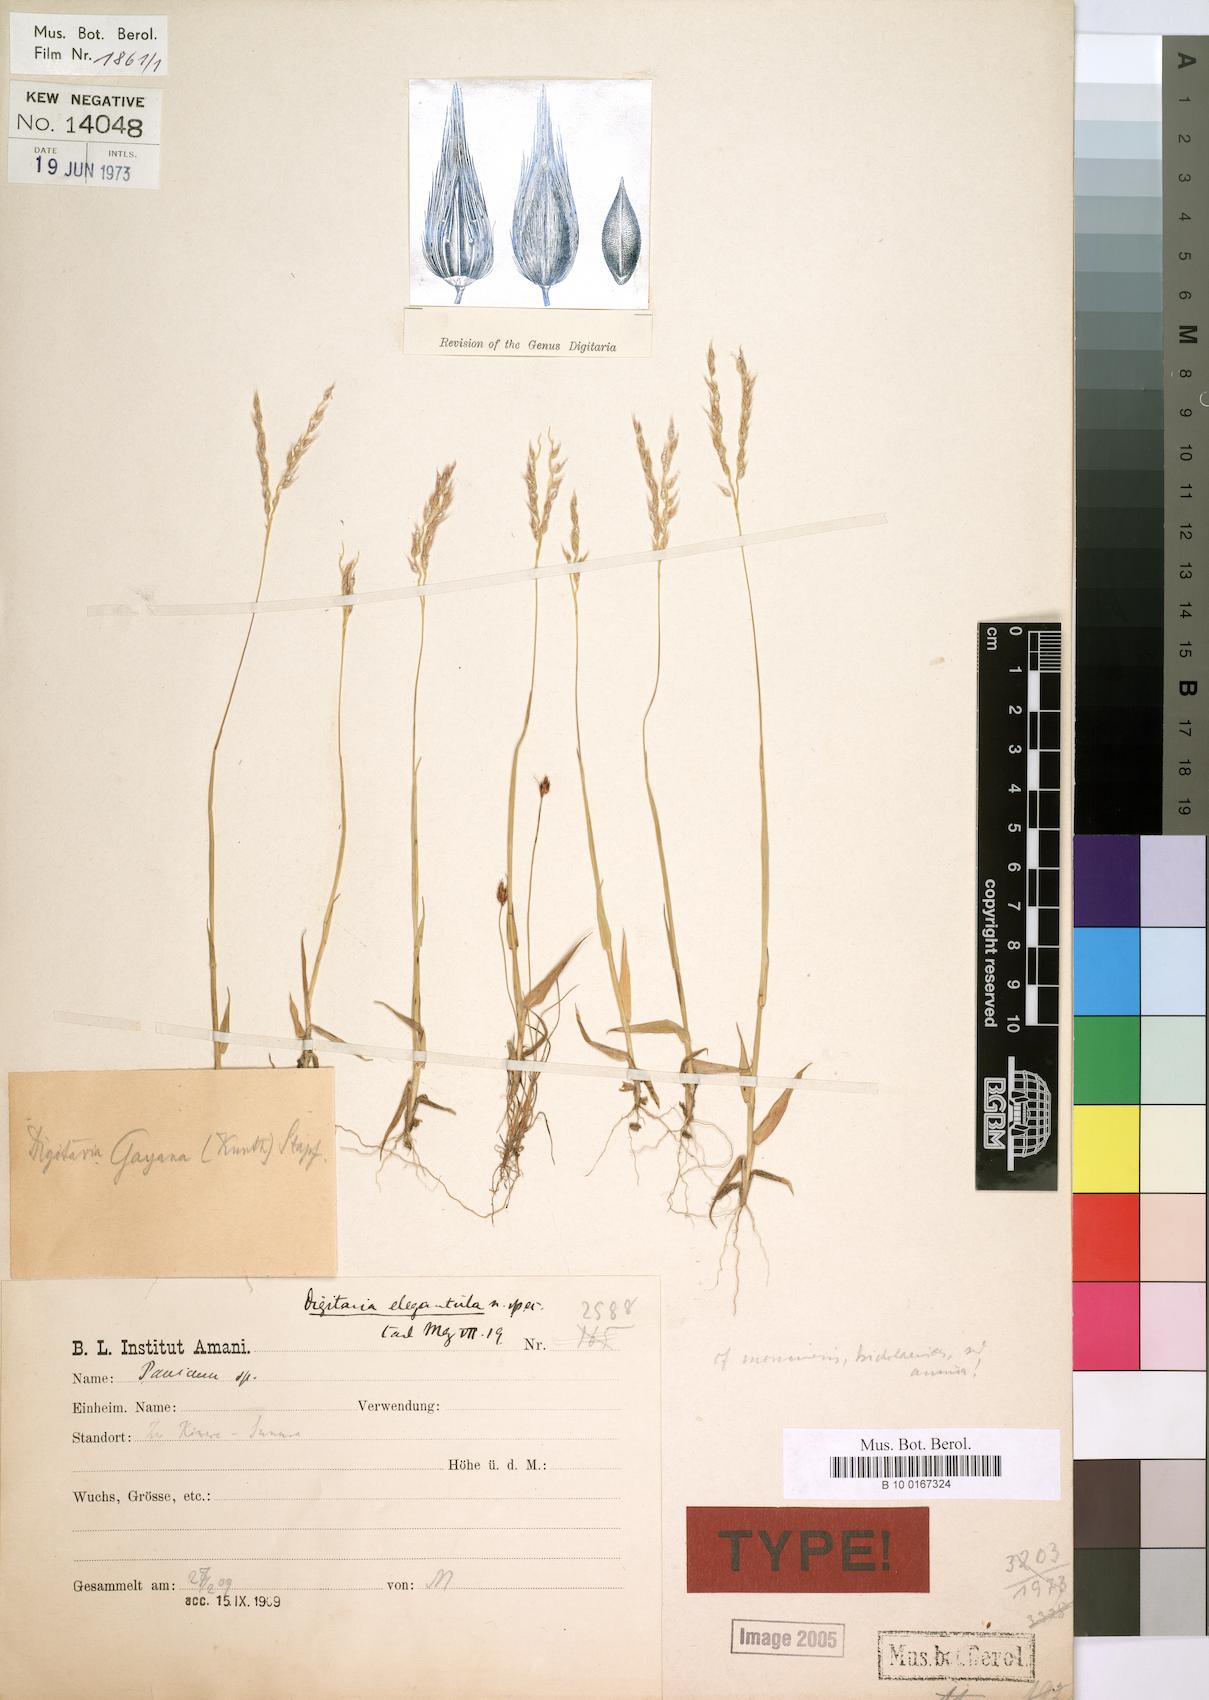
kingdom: Plantae
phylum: Tracheophyta
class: Liliopsida
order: Poales
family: Poaceae
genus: Digitaria
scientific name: Digitaria gayana
